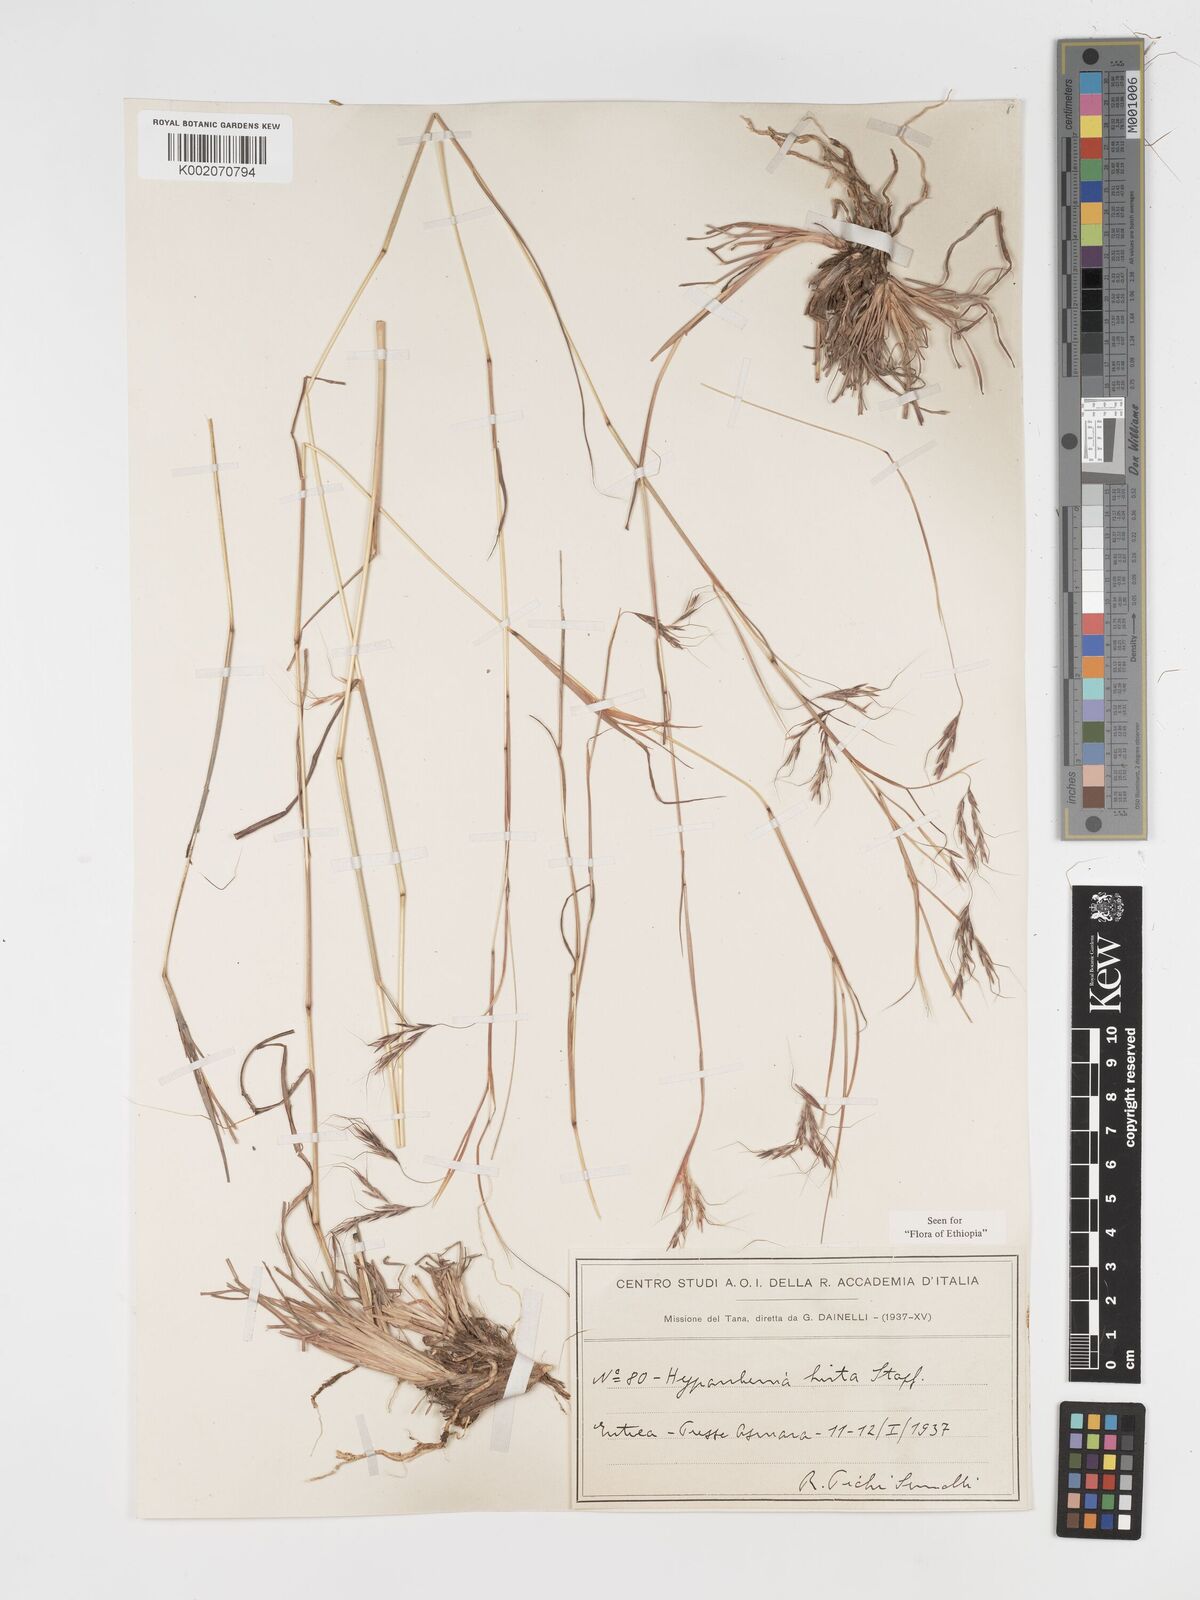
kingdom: Plantae
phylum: Tracheophyta
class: Liliopsida
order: Poales
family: Poaceae
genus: Hyparrhenia
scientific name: Hyparrhenia hirta
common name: Thatching grass
